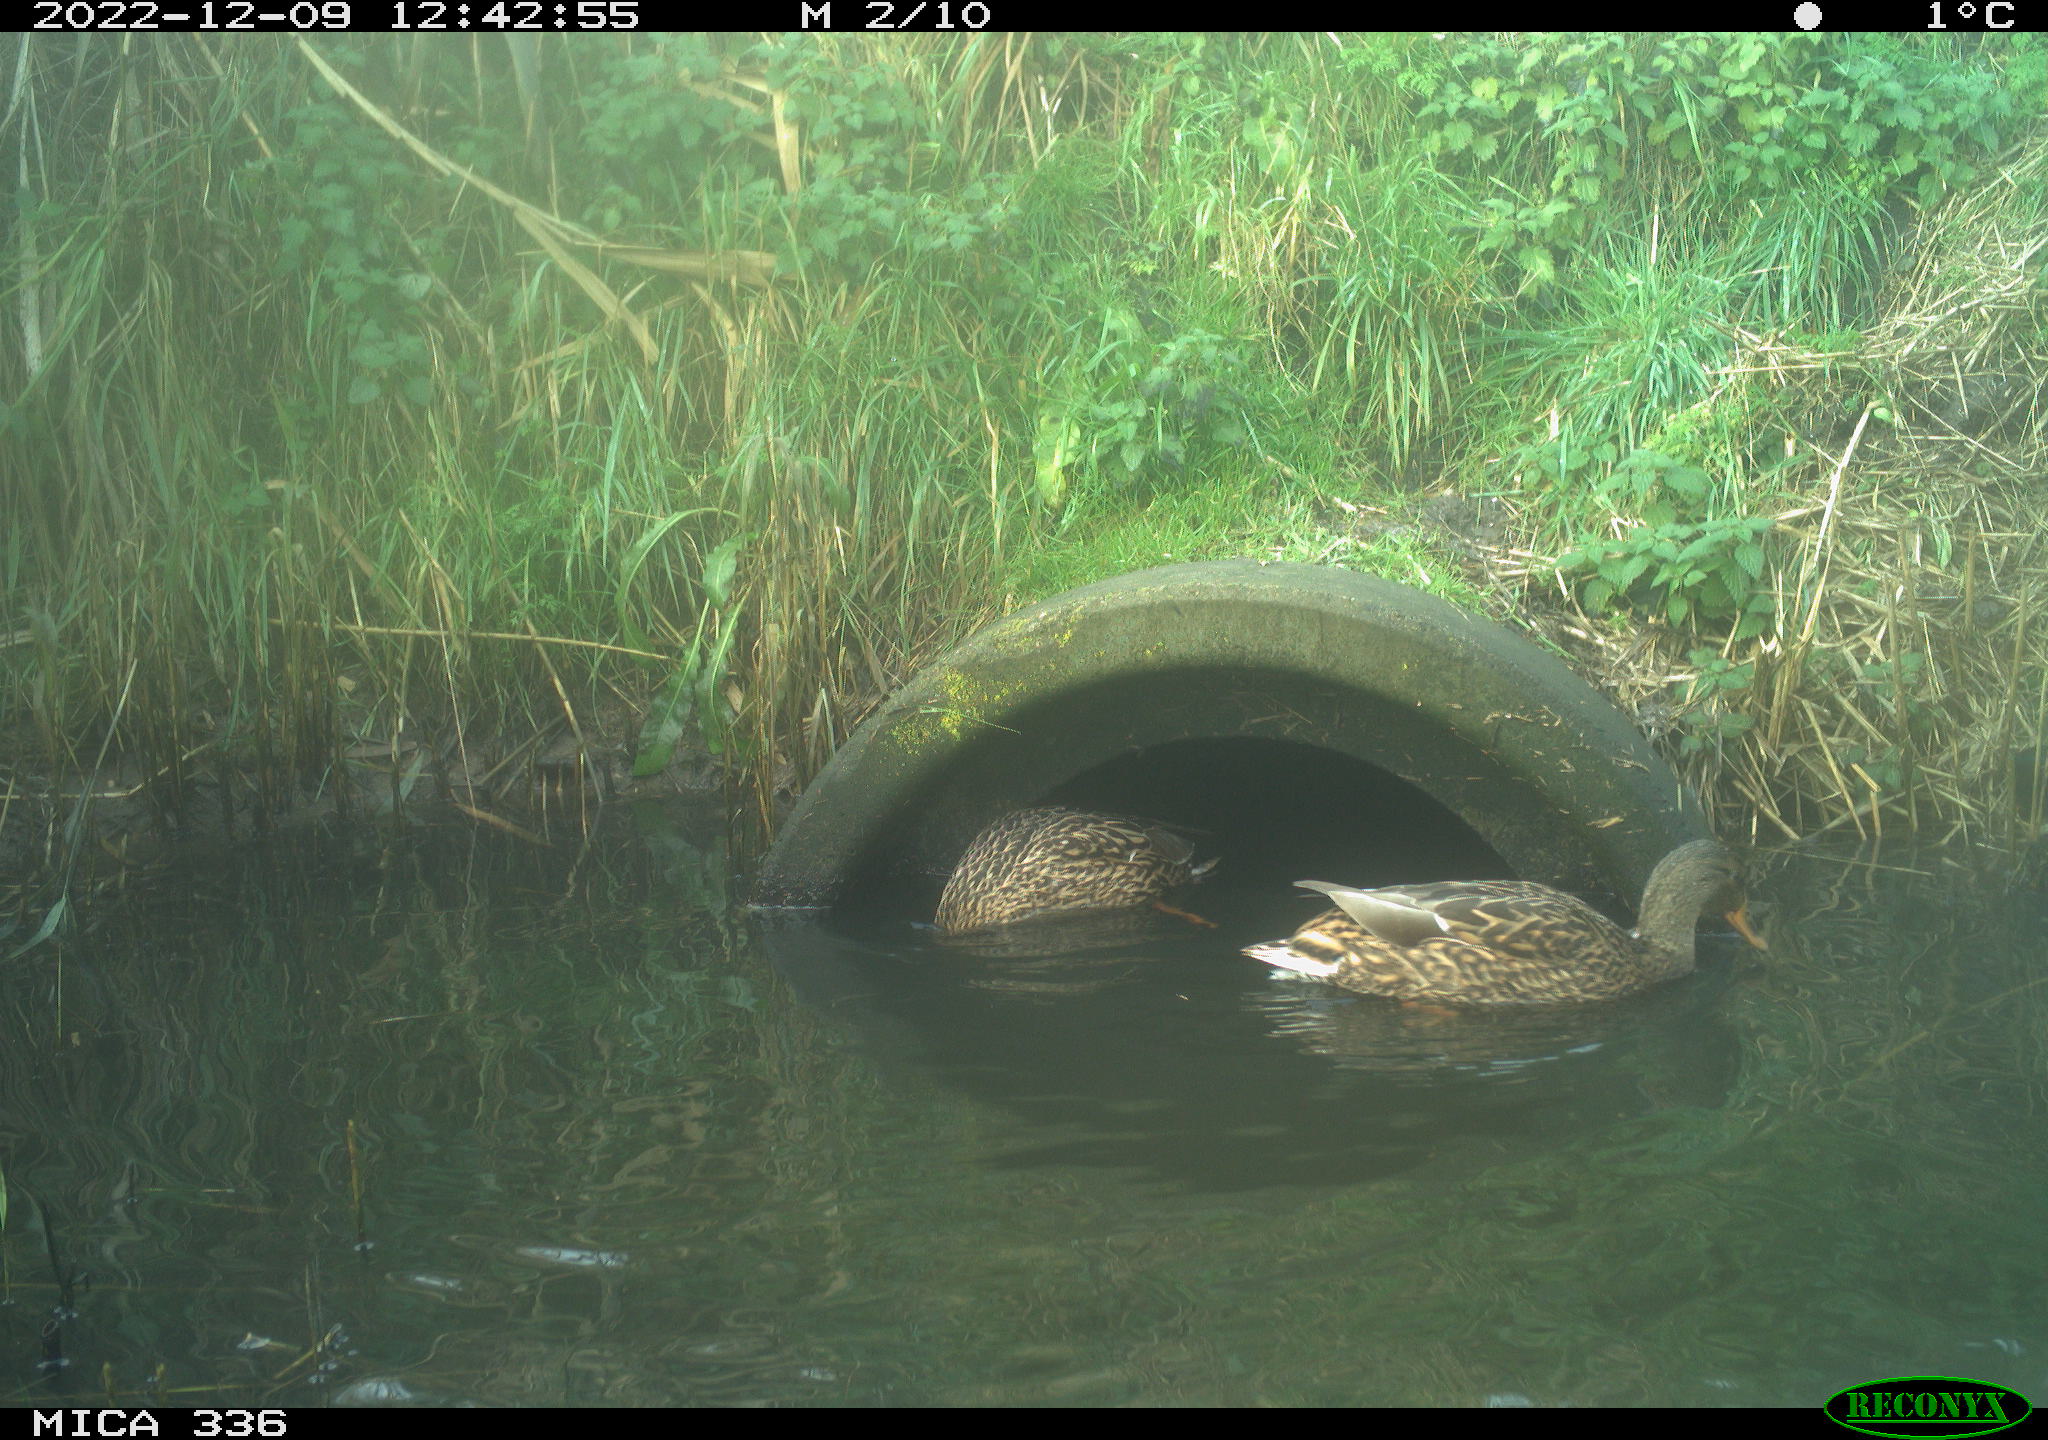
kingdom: Animalia
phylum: Chordata
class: Aves
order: Anseriformes
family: Anatidae
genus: Anas
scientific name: Anas
